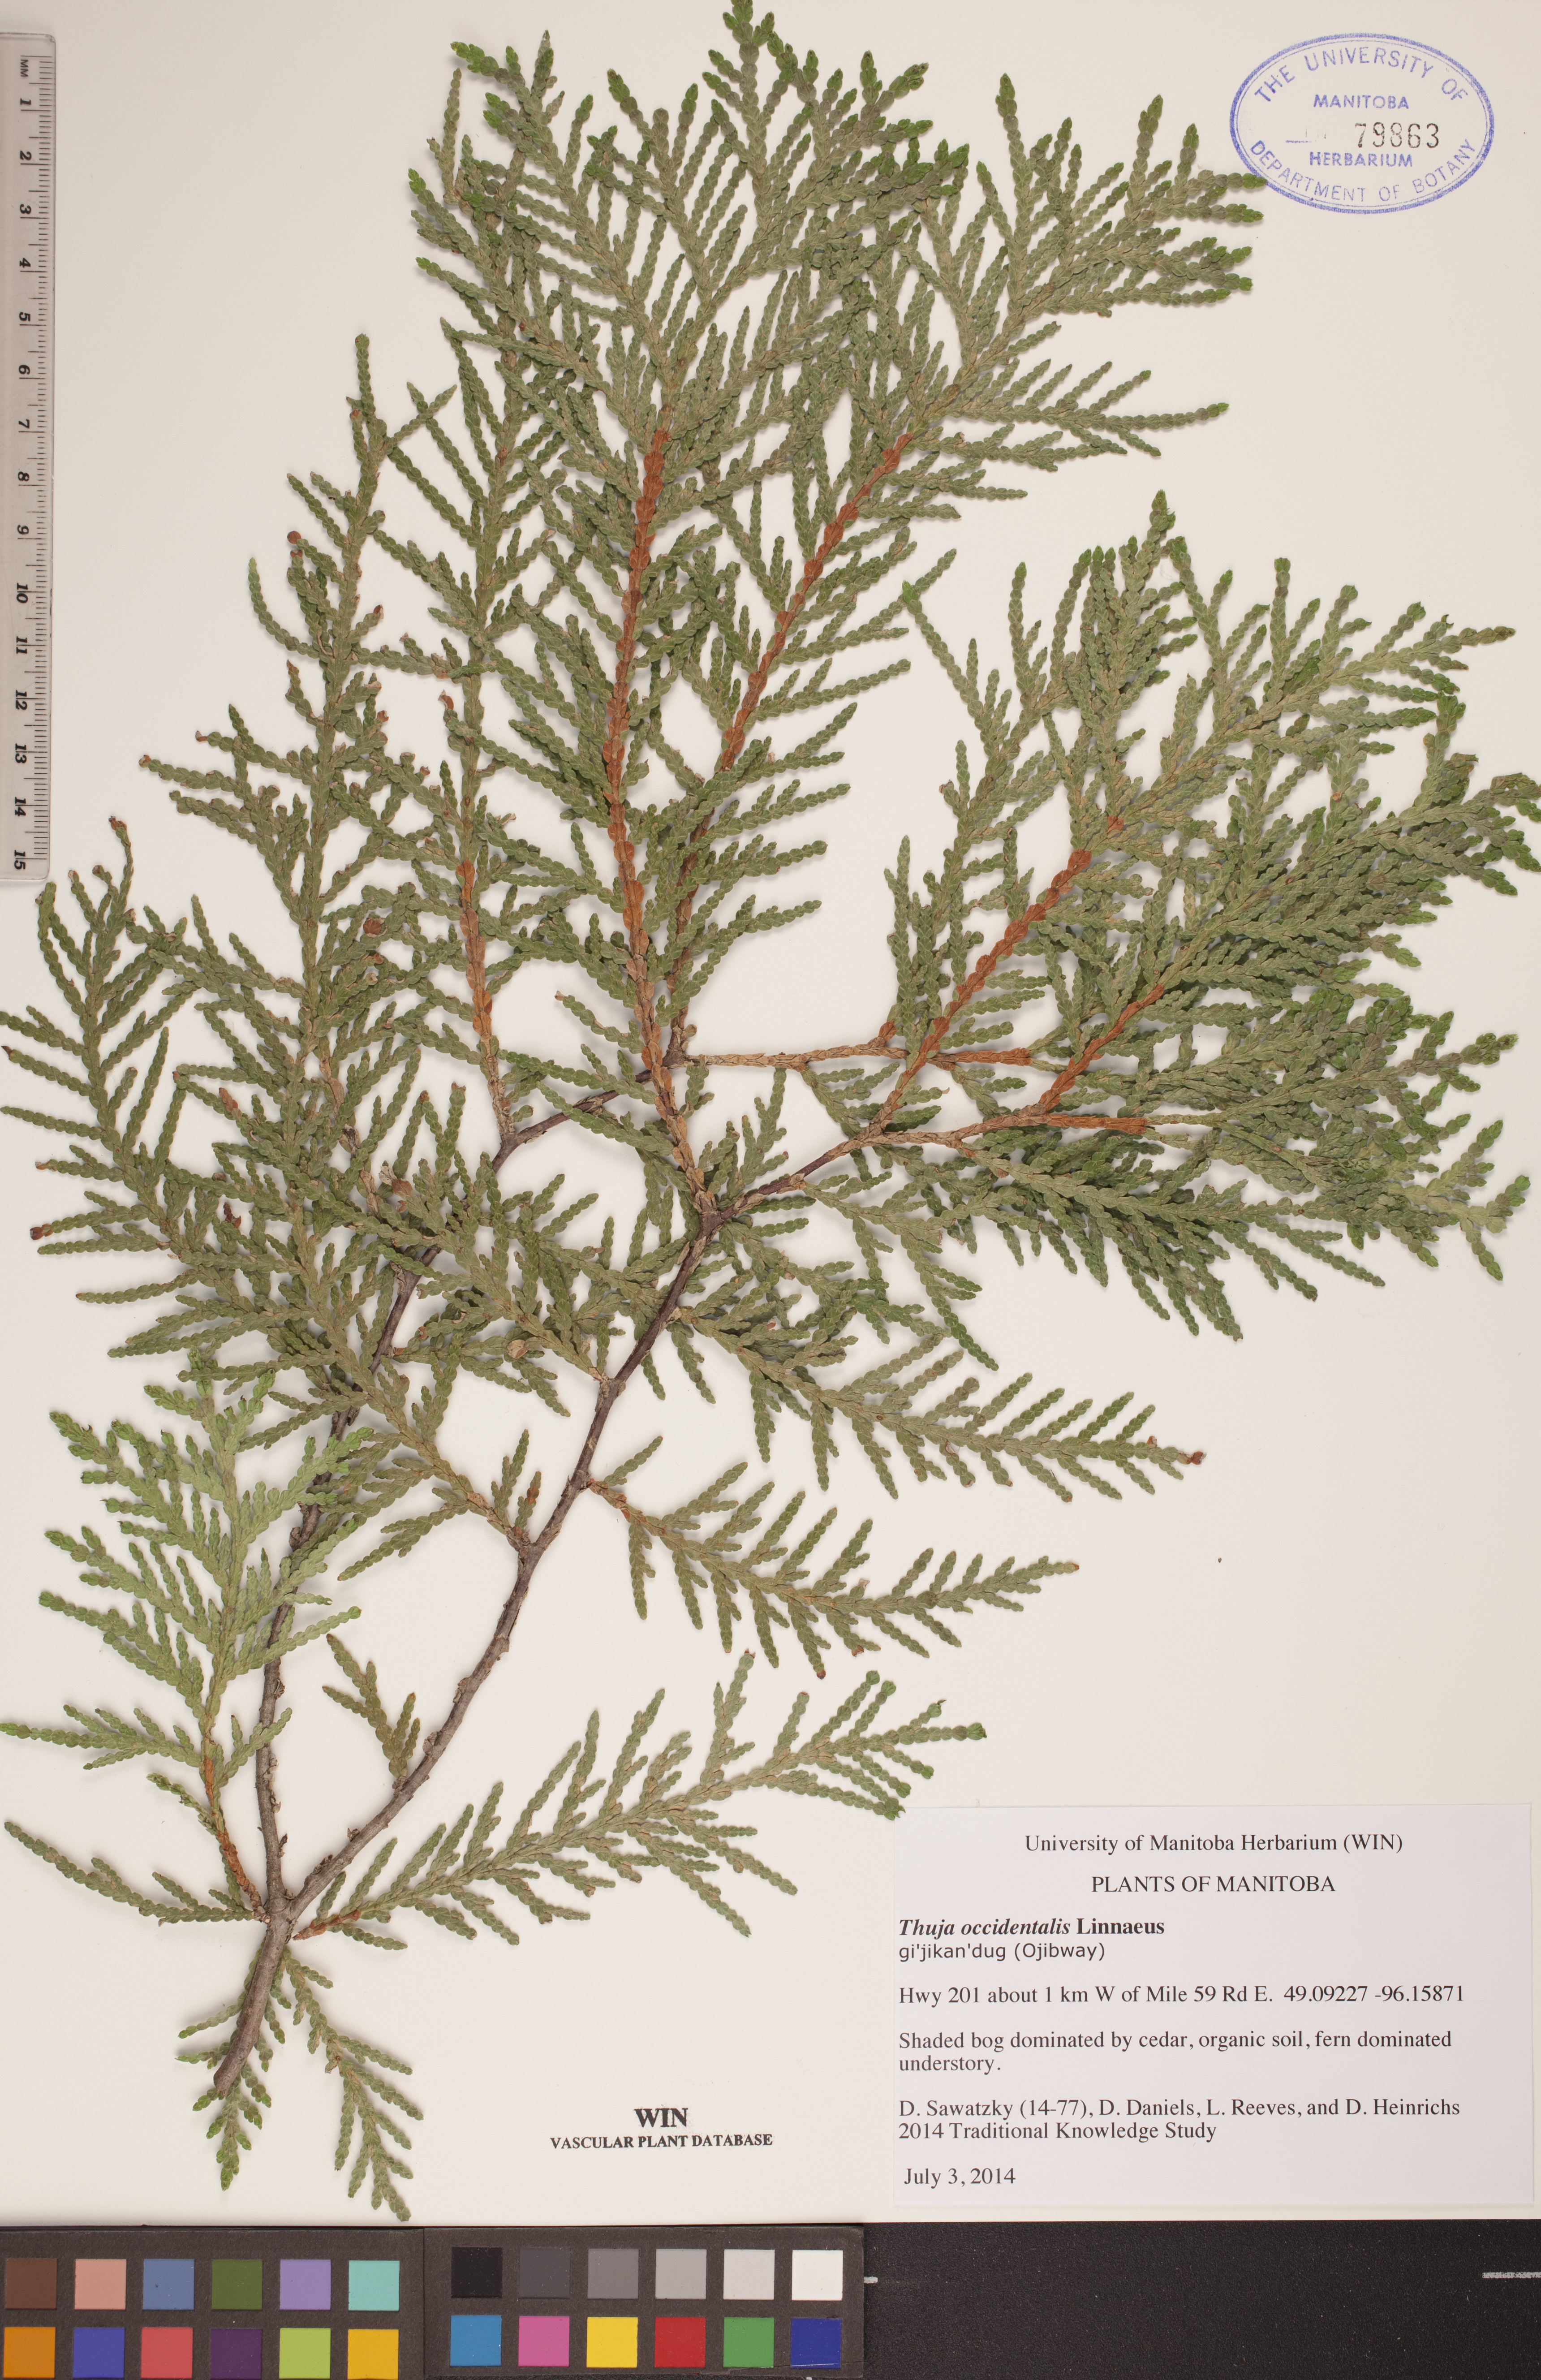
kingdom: Plantae
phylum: Tracheophyta
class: Pinopsida
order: Pinales
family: Cupressaceae
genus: Thuja
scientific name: Thuja occidentalis
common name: Northern white-cedar
